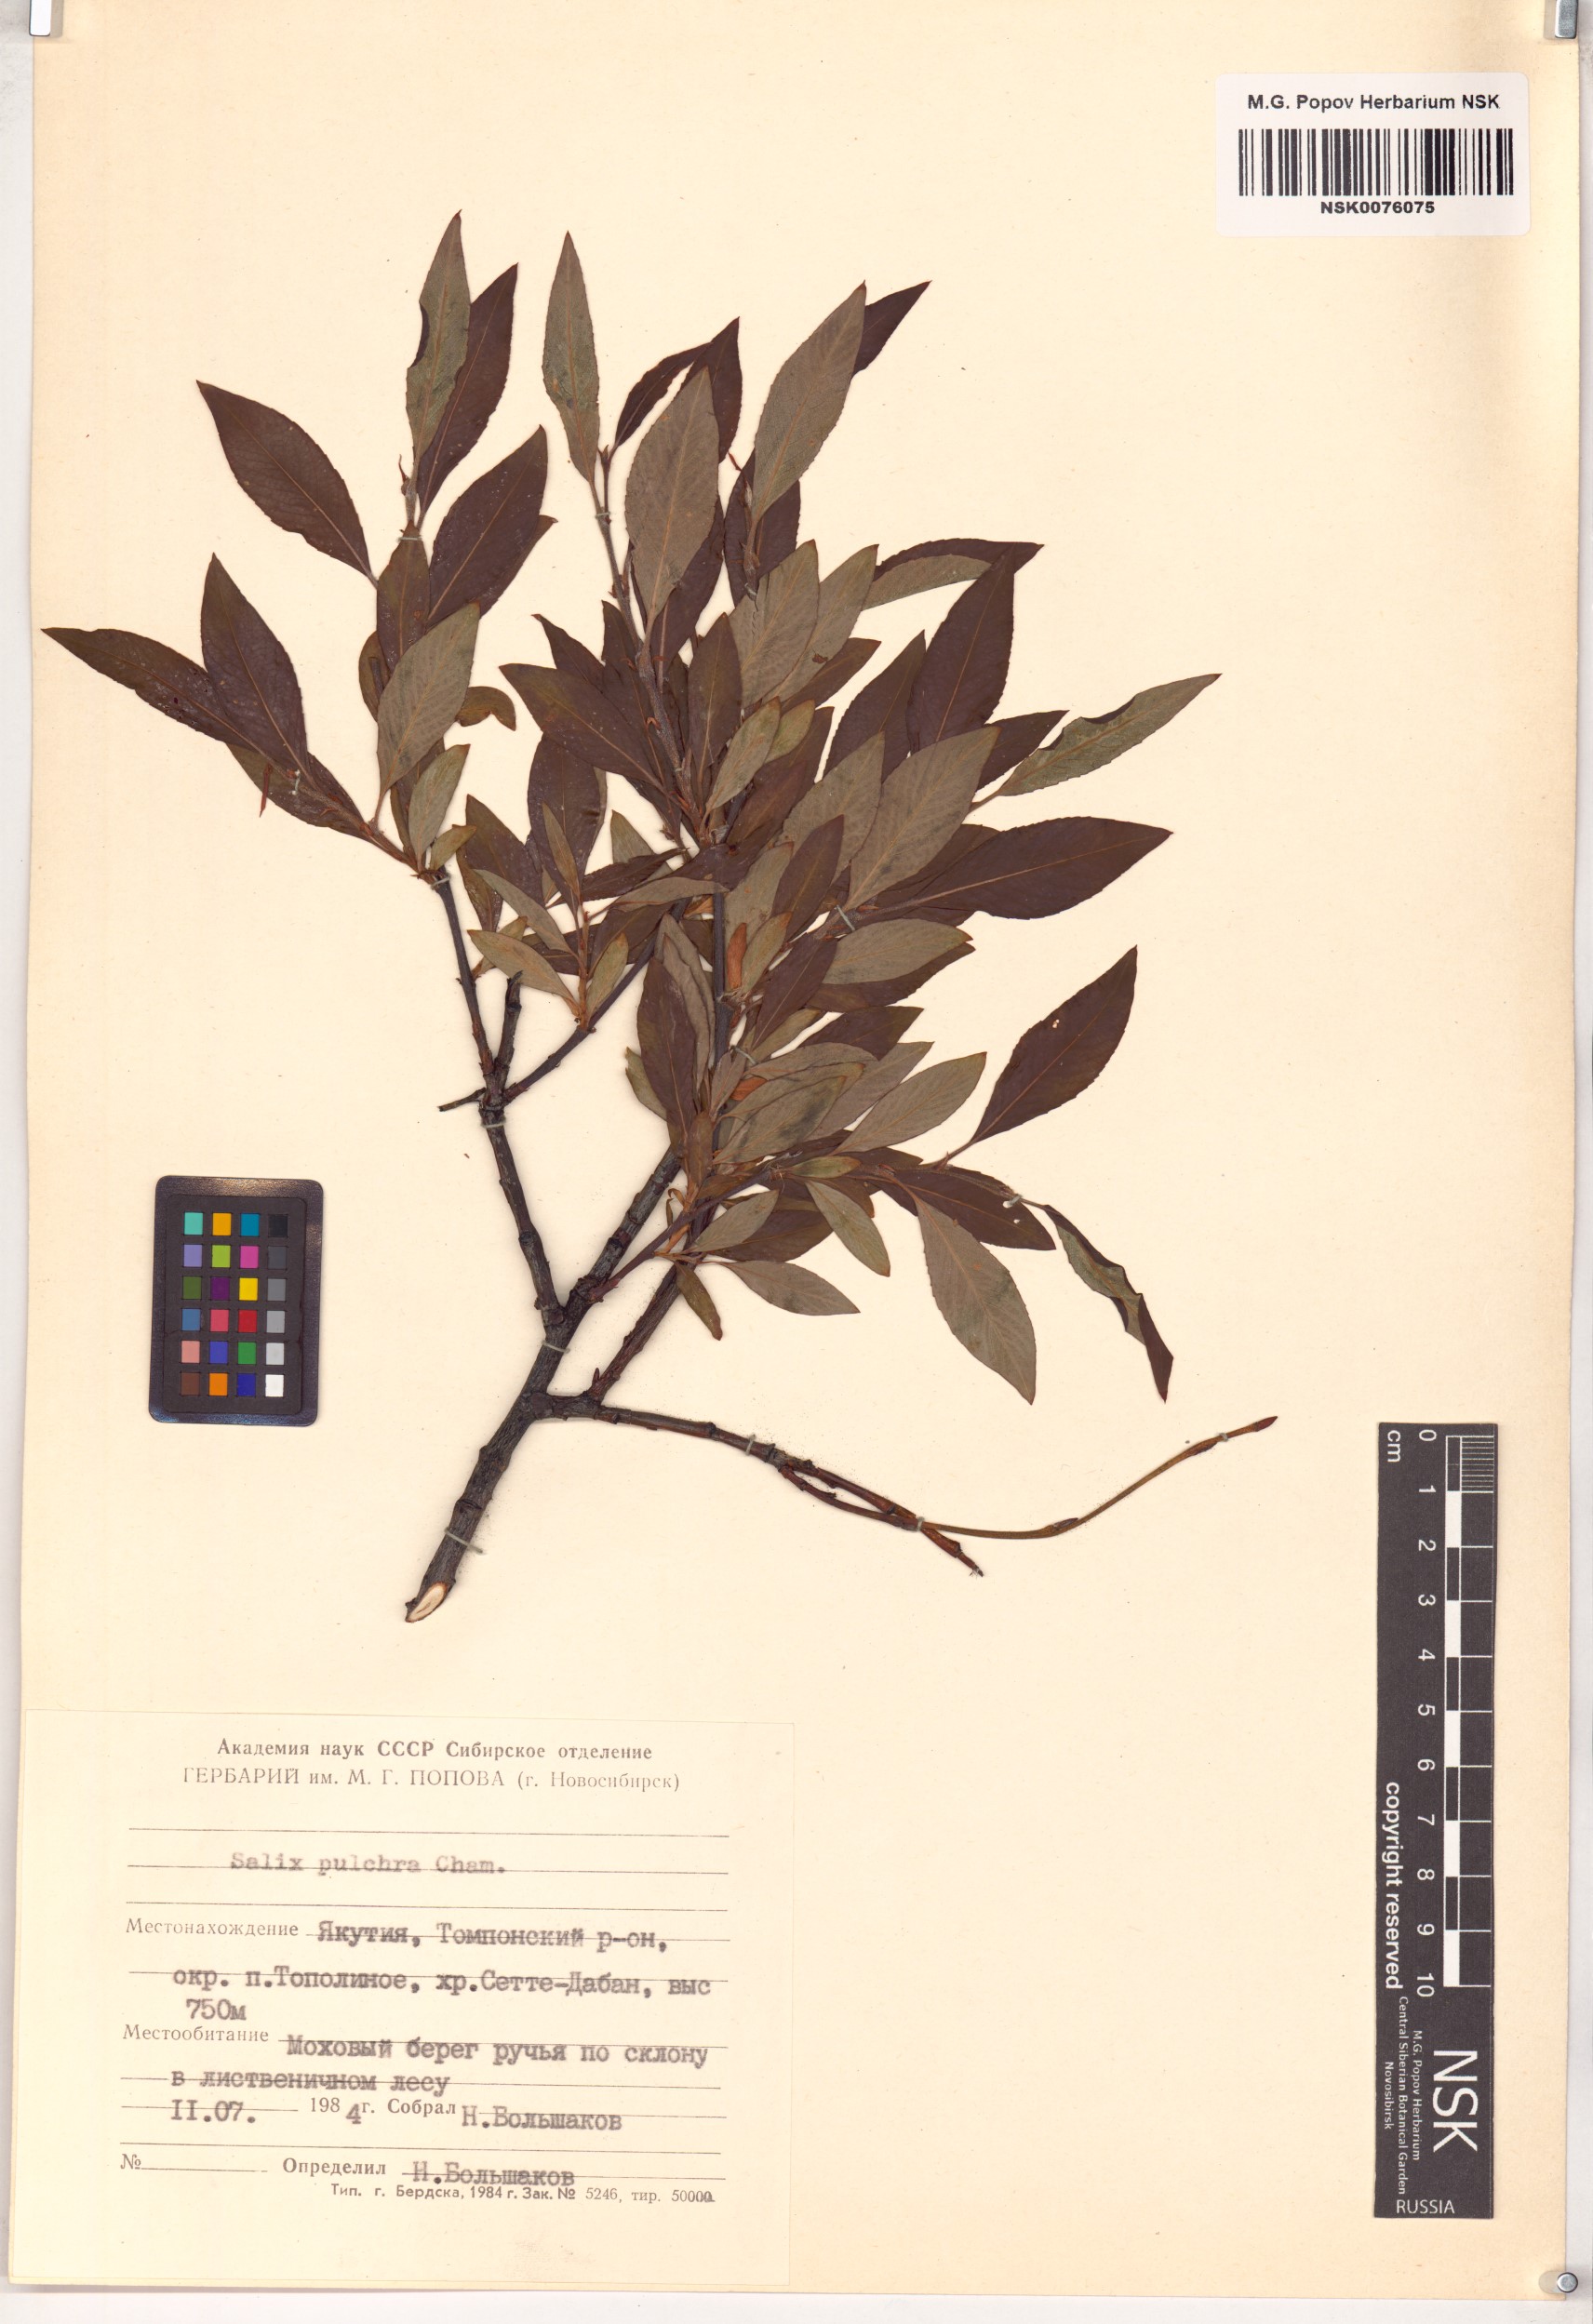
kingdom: Plantae
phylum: Tracheophyta
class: Magnoliopsida
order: Malpighiales
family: Salicaceae
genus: Salix
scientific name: Salix pulchra
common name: Diamond-leaved willow
